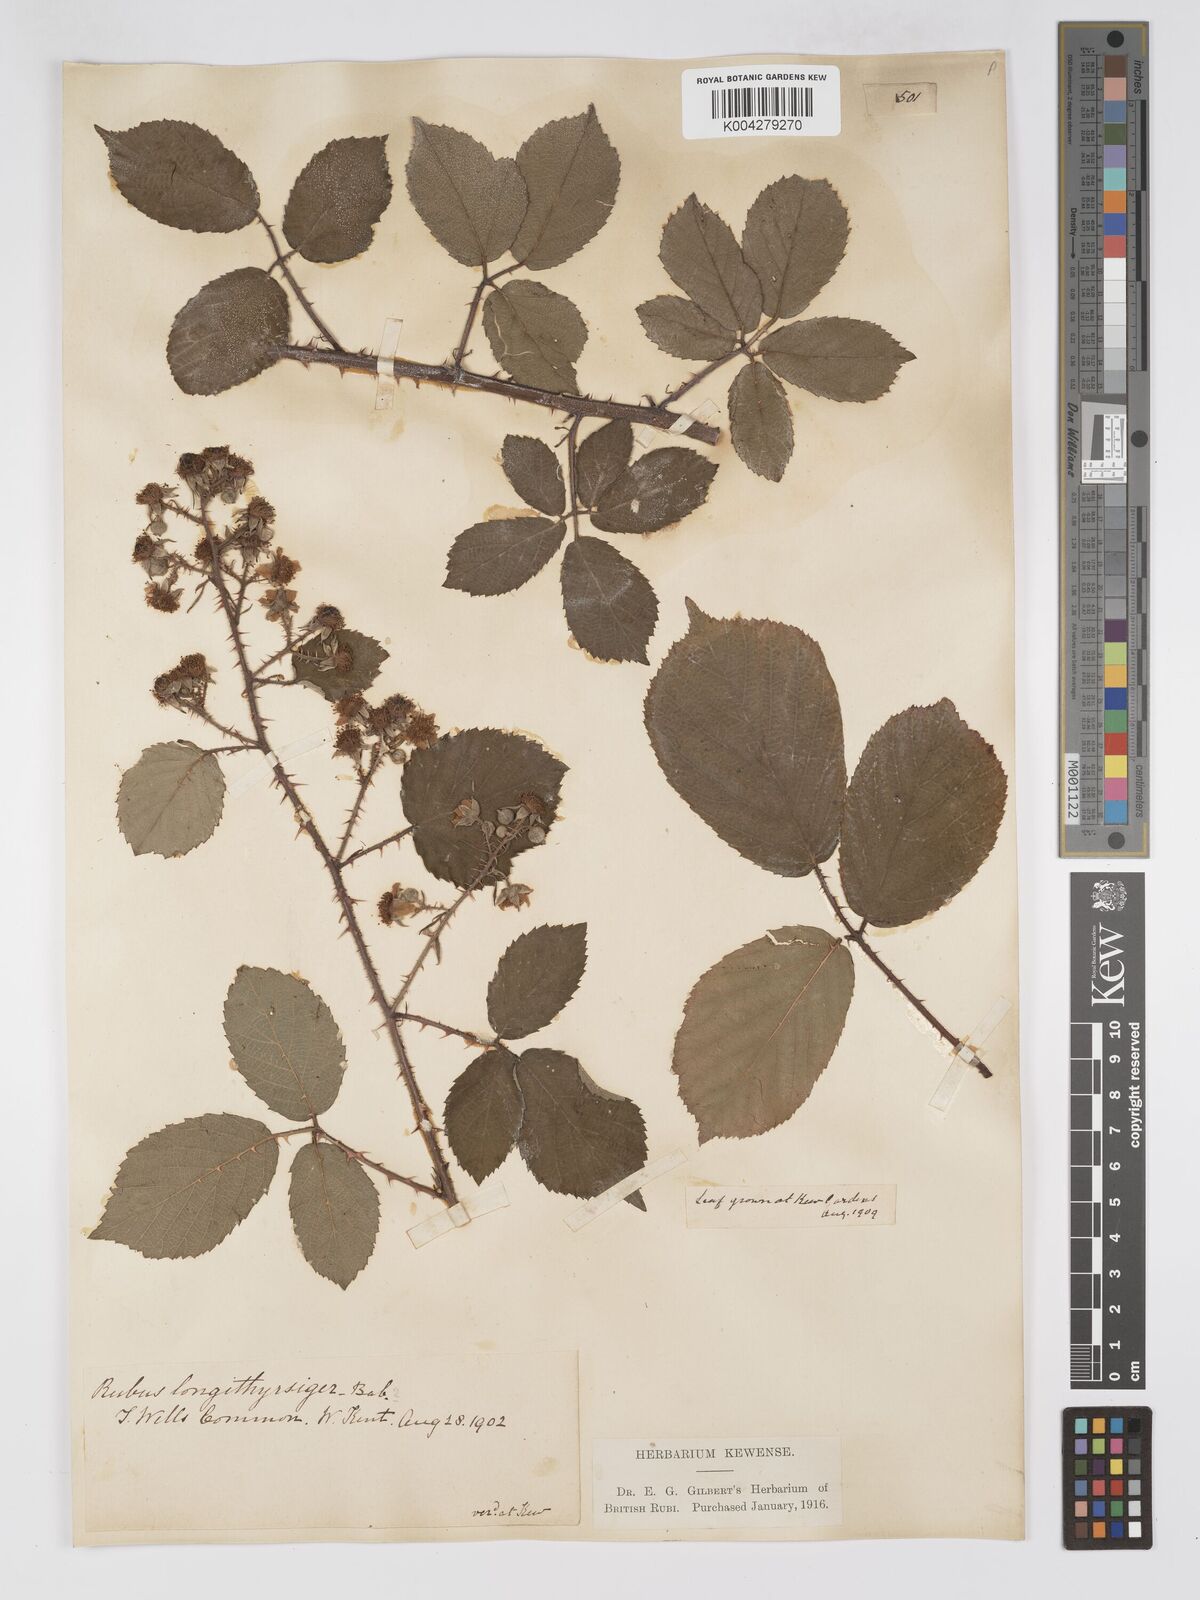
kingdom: Plantae
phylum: Tracheophyta
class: Magnoliopsida
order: Rosales
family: Rosaceae
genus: Rubus
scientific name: Rubus longithyrsiger
